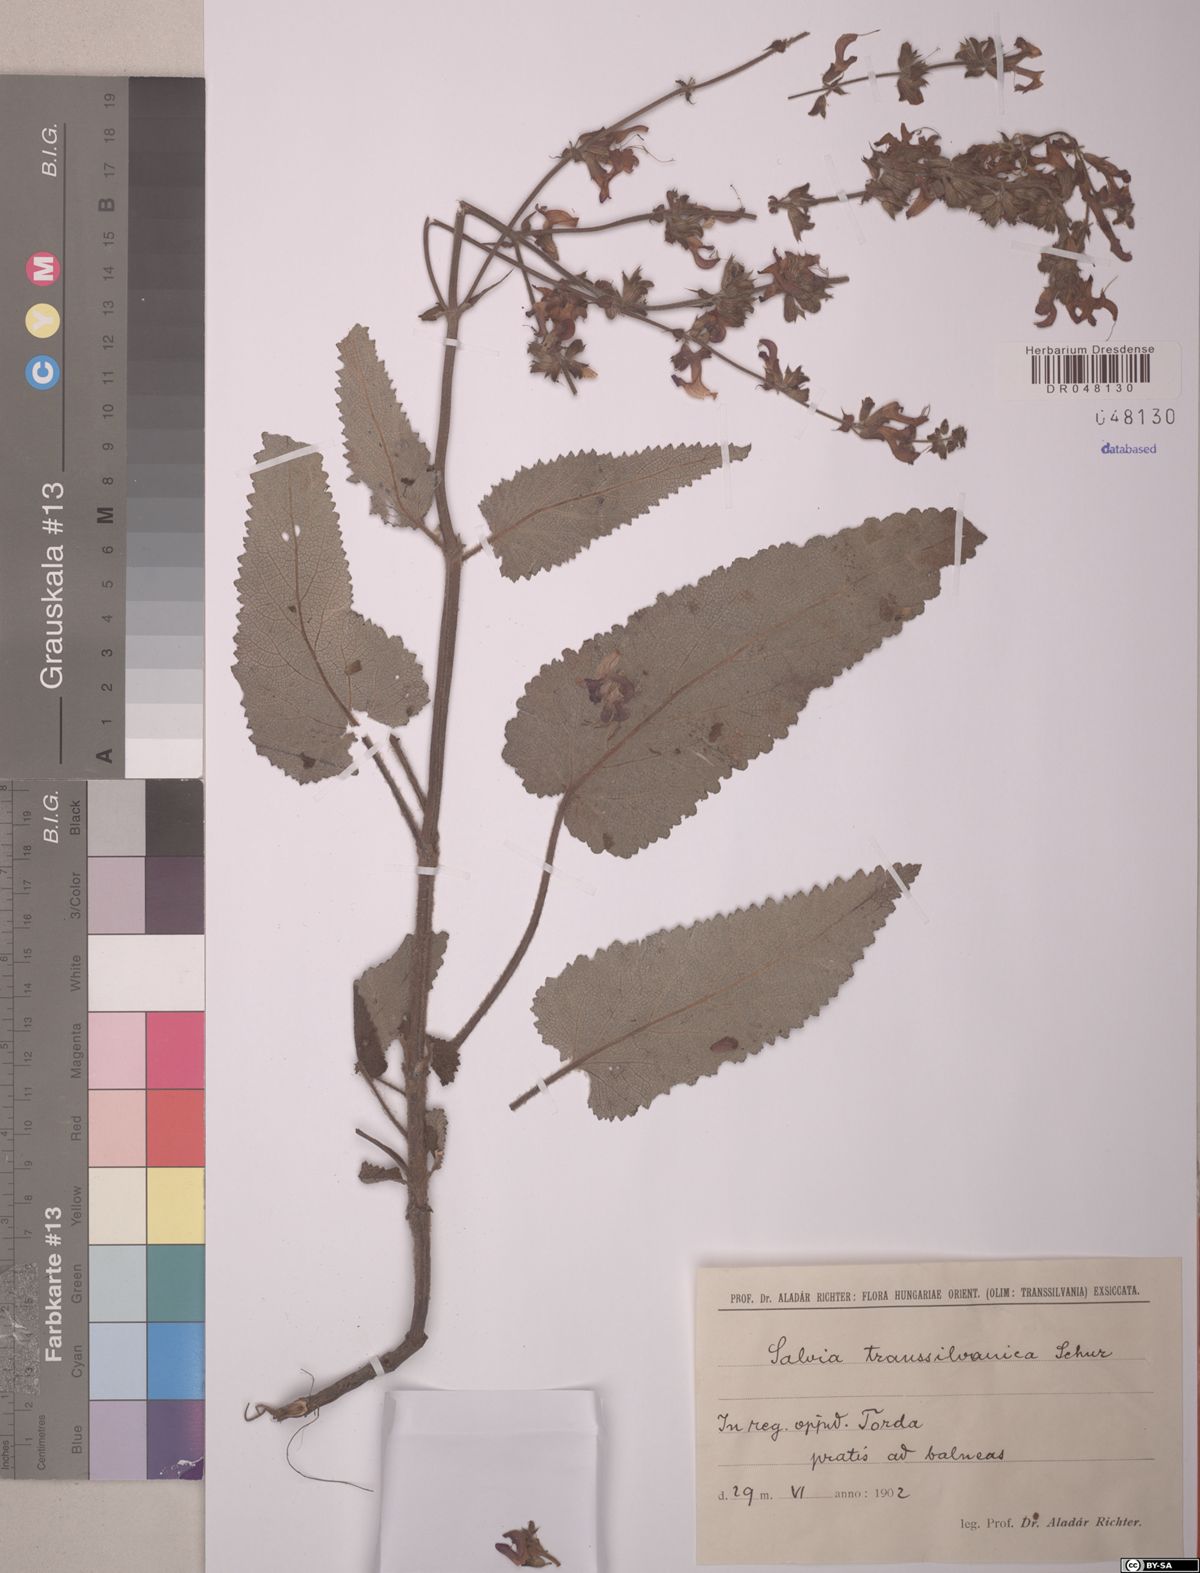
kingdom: Plantae
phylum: Tracheophyta
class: Magnoliopsida
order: Lamiales
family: Lamiaceae
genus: Salvia
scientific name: Salvia transsylvanica
